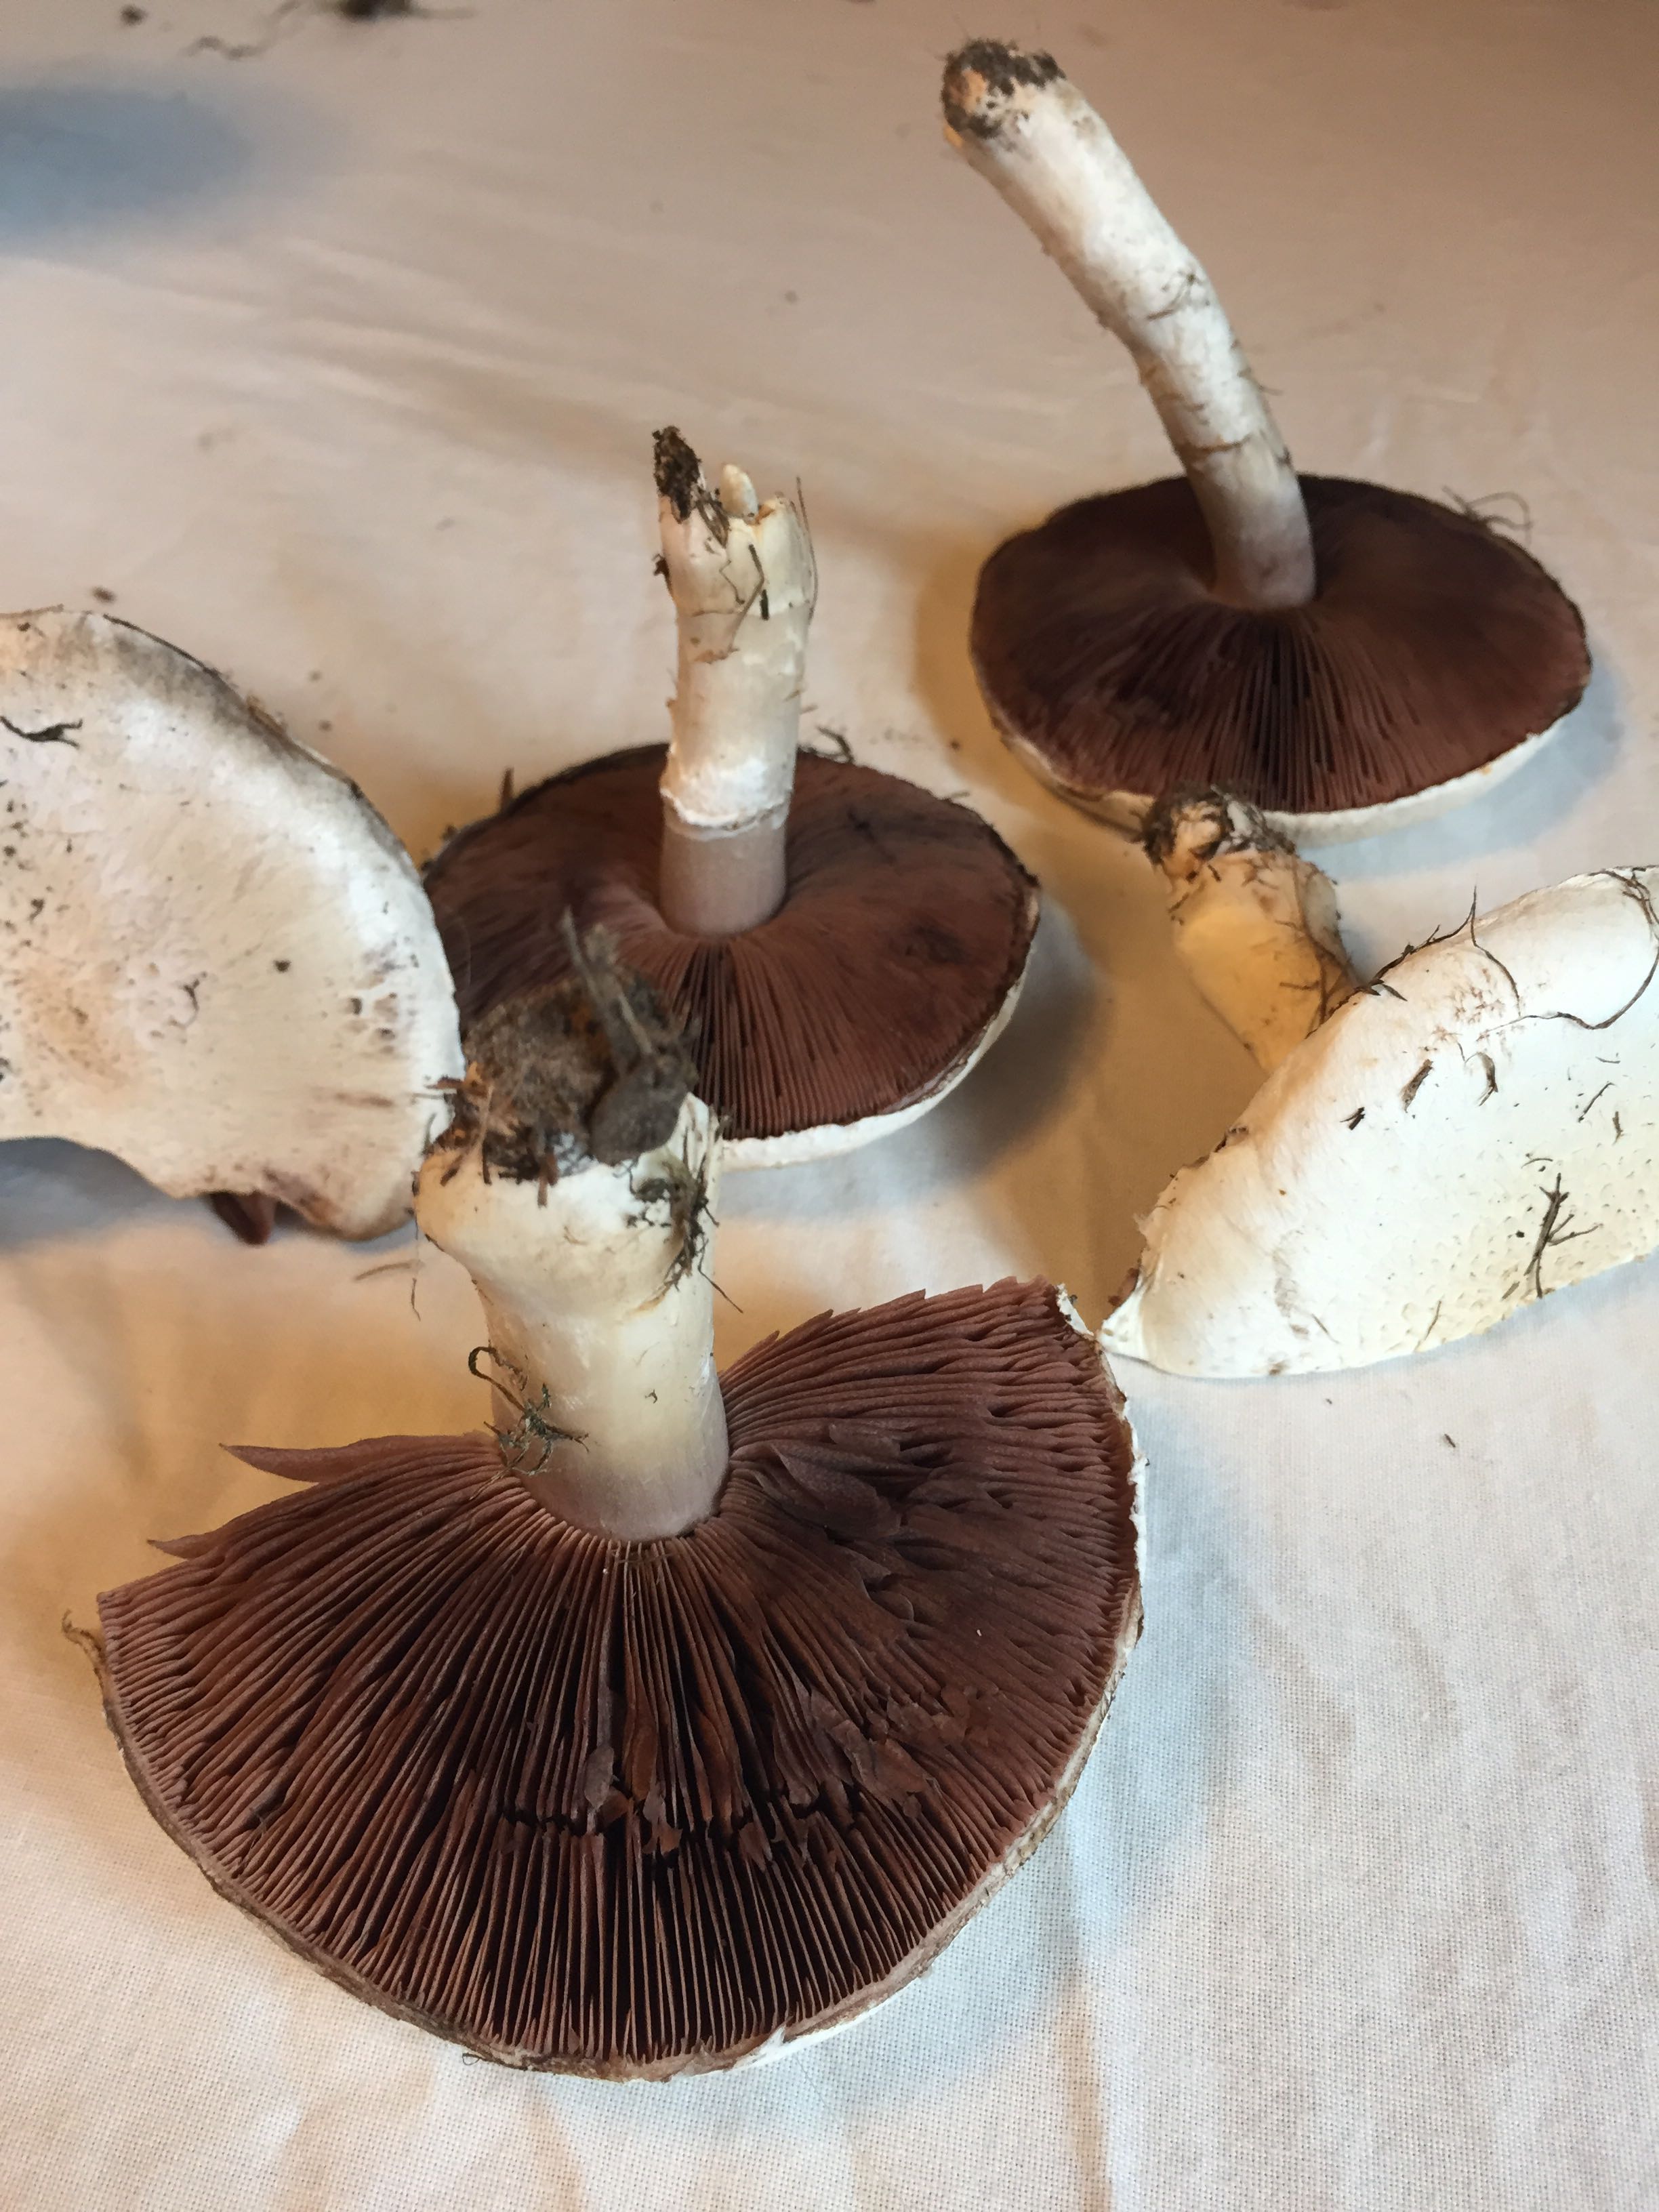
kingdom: Fungi
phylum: Basidiomycota
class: Agaricomycetes
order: Agaricales
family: Agaricaceae
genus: Agaricus
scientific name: Agaricus campestris
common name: mark-champignon
